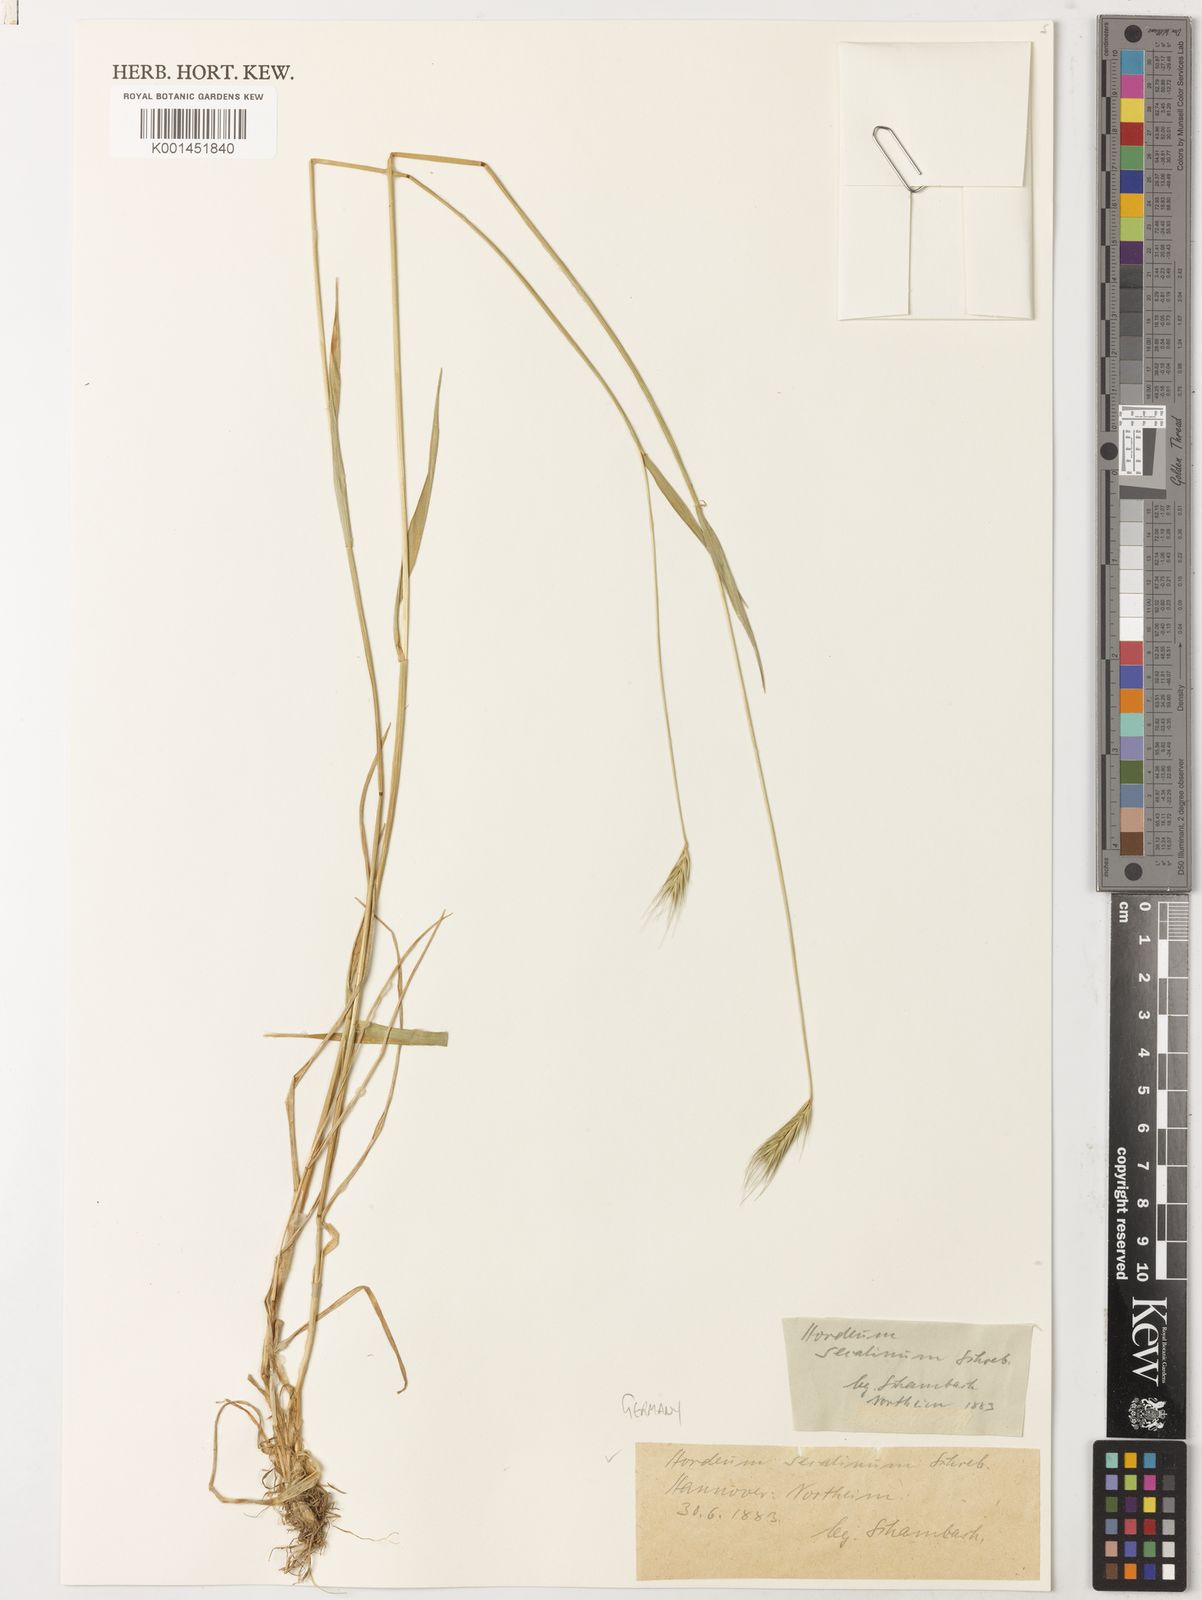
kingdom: Plantae
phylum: Tracheophyta
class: Liliopsida
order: Poales
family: Poaceae
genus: Hordeum
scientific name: Hordeum secalinum
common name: Meadow barley
